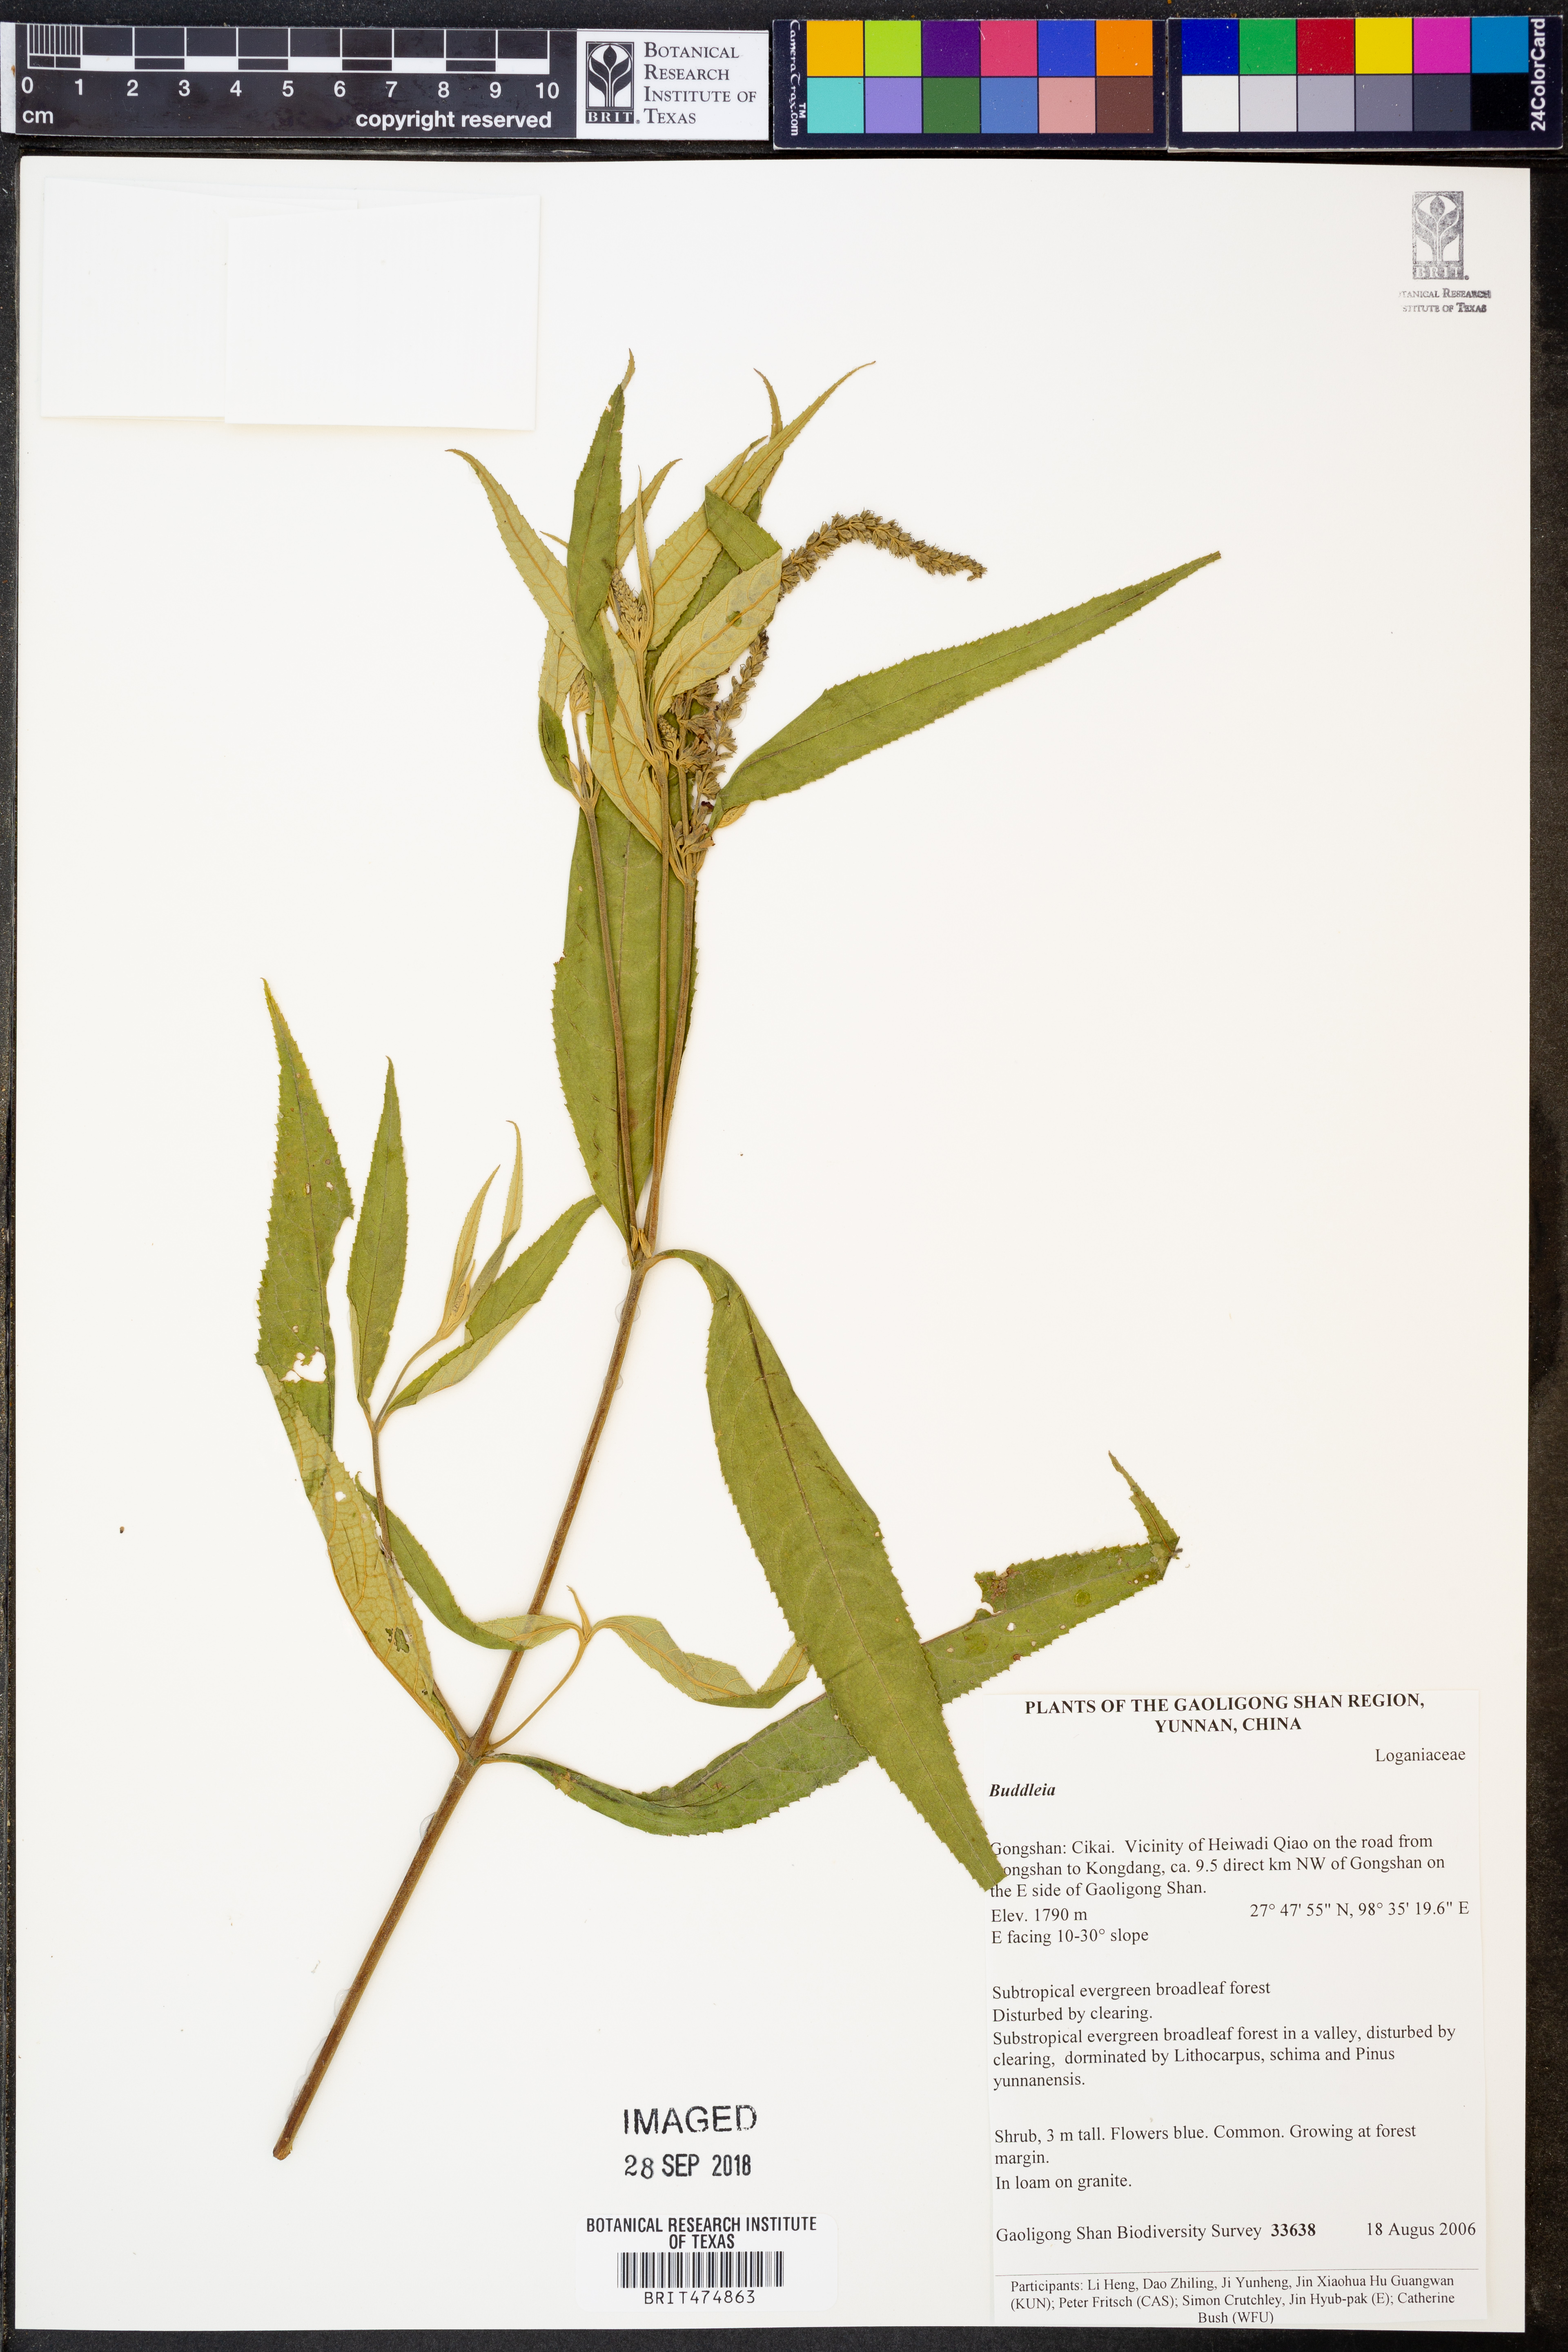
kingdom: Plantae
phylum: Tracheophyta
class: Magnoliopsida
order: Lamiales
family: Scrophulariaceae
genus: Buddleja
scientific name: Buddleja
